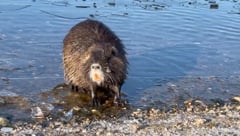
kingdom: Animalia
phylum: Chordata
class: Mammalia
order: Rodentia
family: Myocastoridae
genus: Myocastor
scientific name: Myocastor coypus
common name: Coypu
